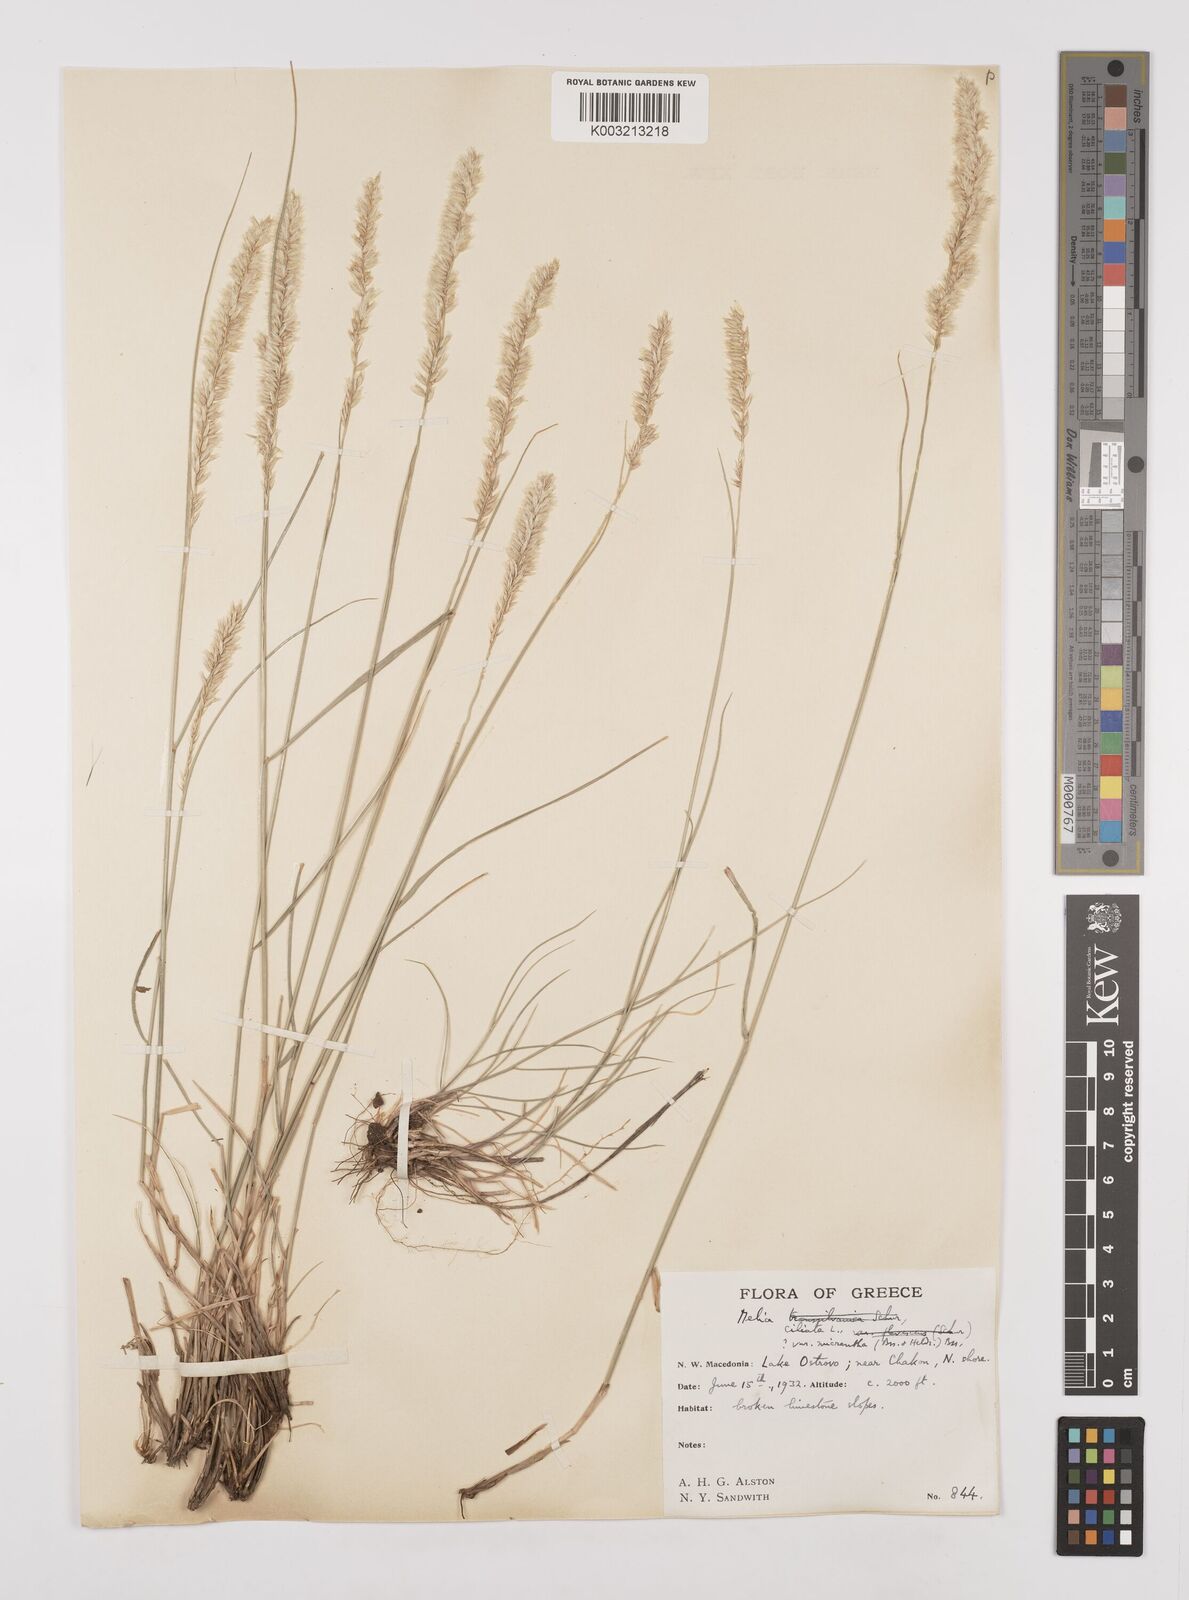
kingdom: Plantae
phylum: Tracheophyta
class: Liliopsida
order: Poales
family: Poaceae
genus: Melica
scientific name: Melica ciliata
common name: Hairy melicgrass
